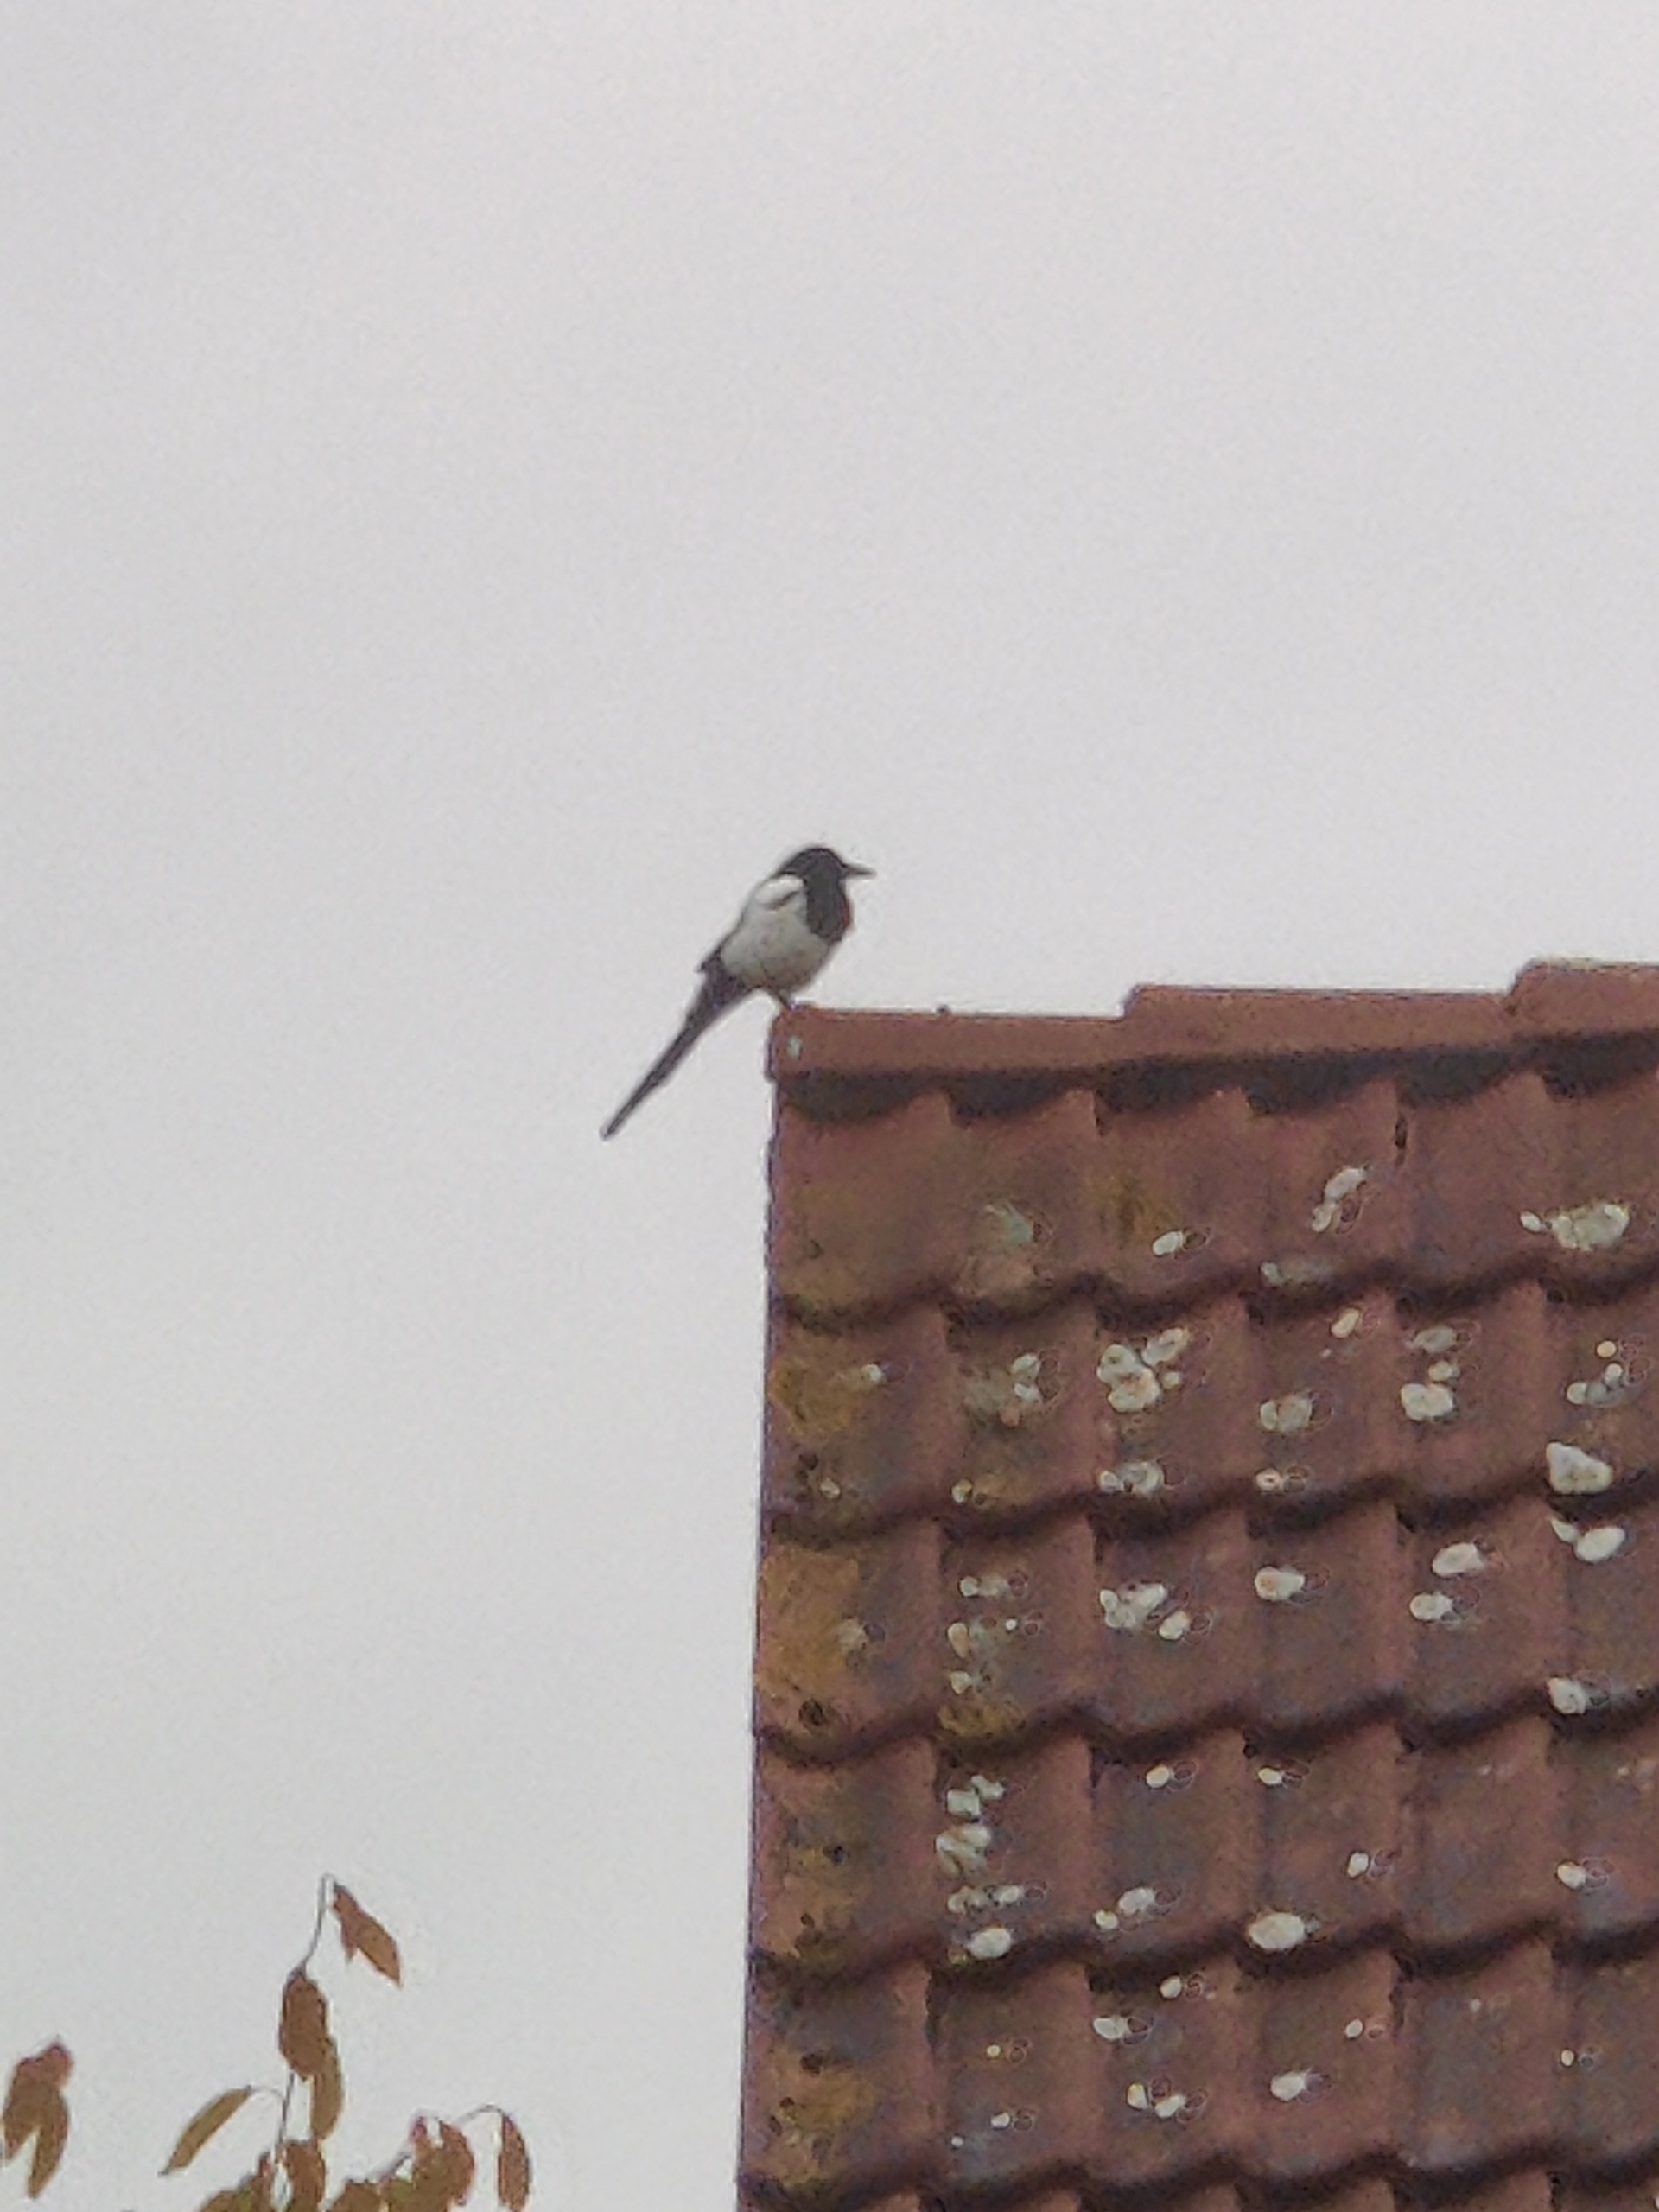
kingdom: Animalia
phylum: Chordata
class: Aves
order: Passeriformes
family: Corvidae
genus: Pica
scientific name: Pica pica
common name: Husskade
